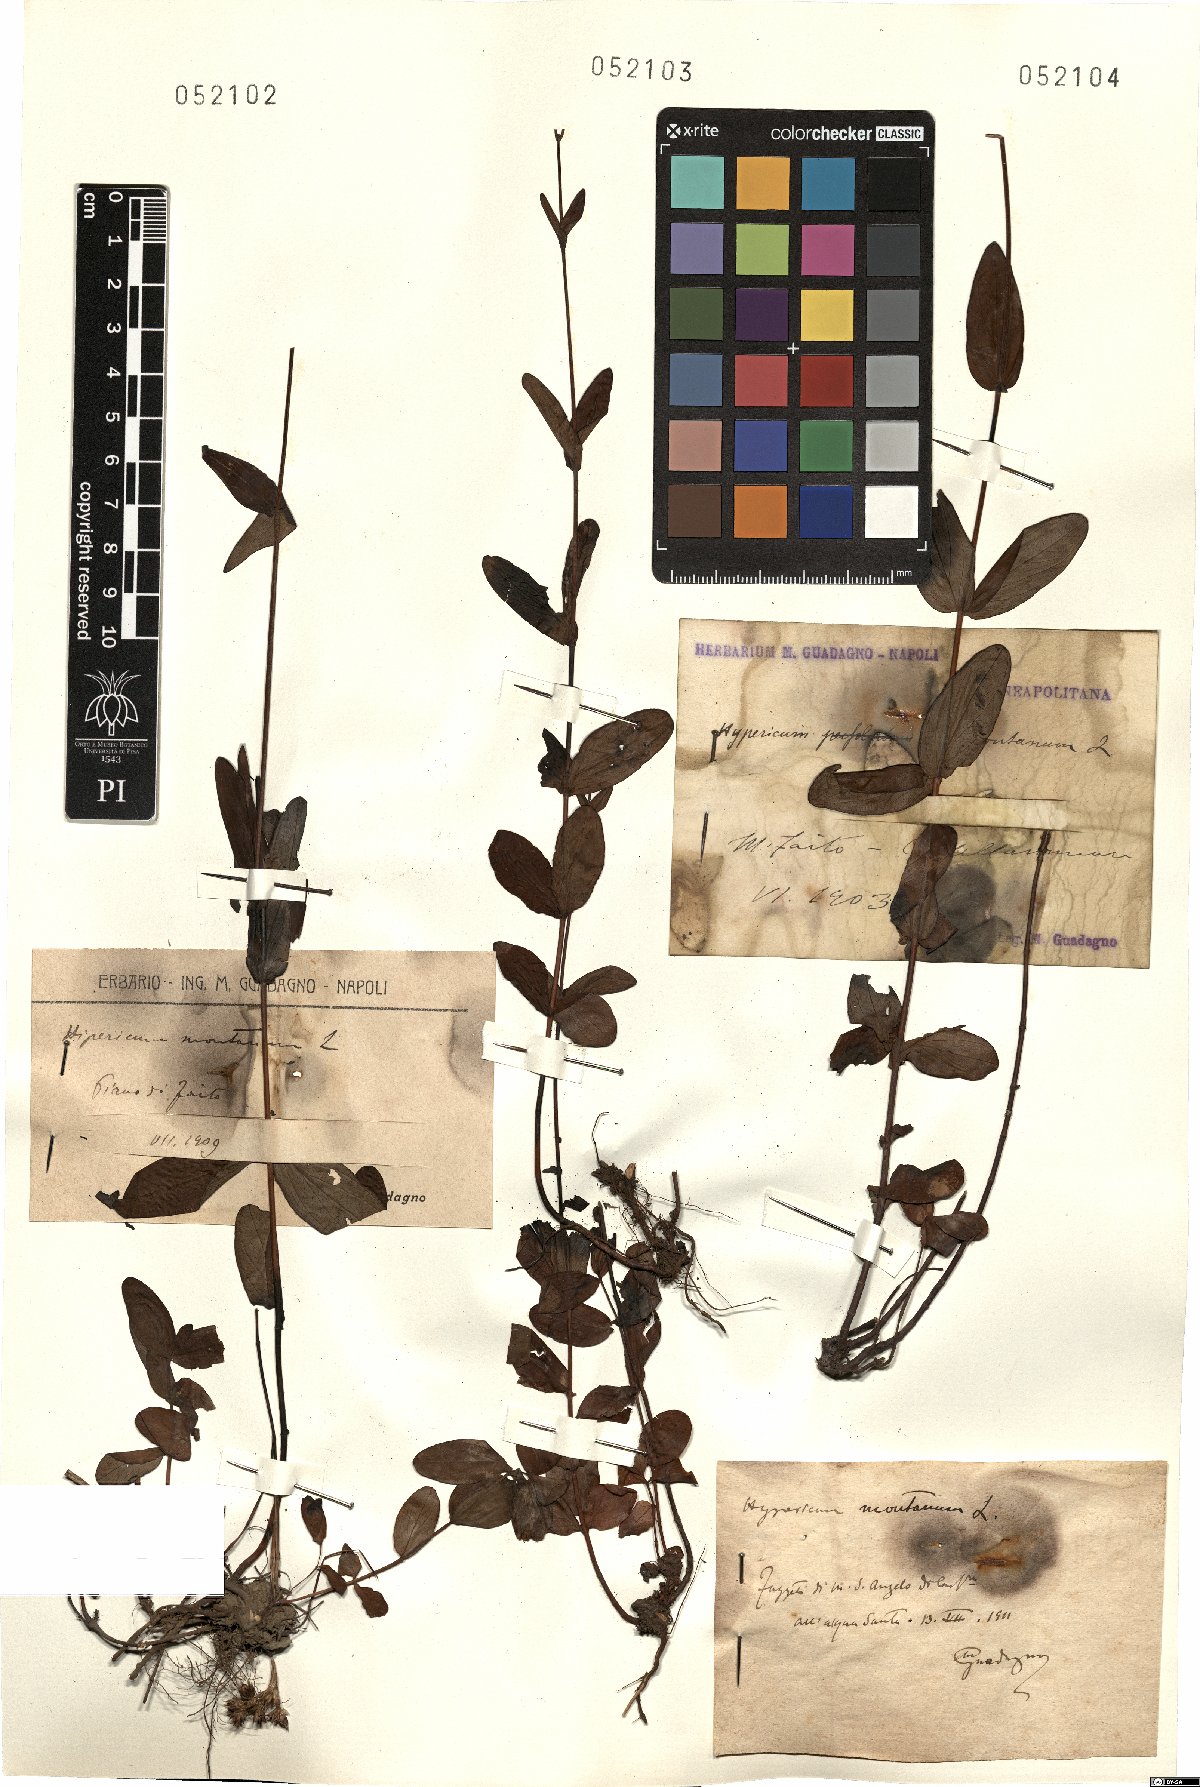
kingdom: Plantae
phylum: Tracheophyta
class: Magnoliopsida
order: Malpighiales
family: Hypericaceae
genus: Hypericum
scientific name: Hypericum montanum
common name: Pale st. john's-wort
